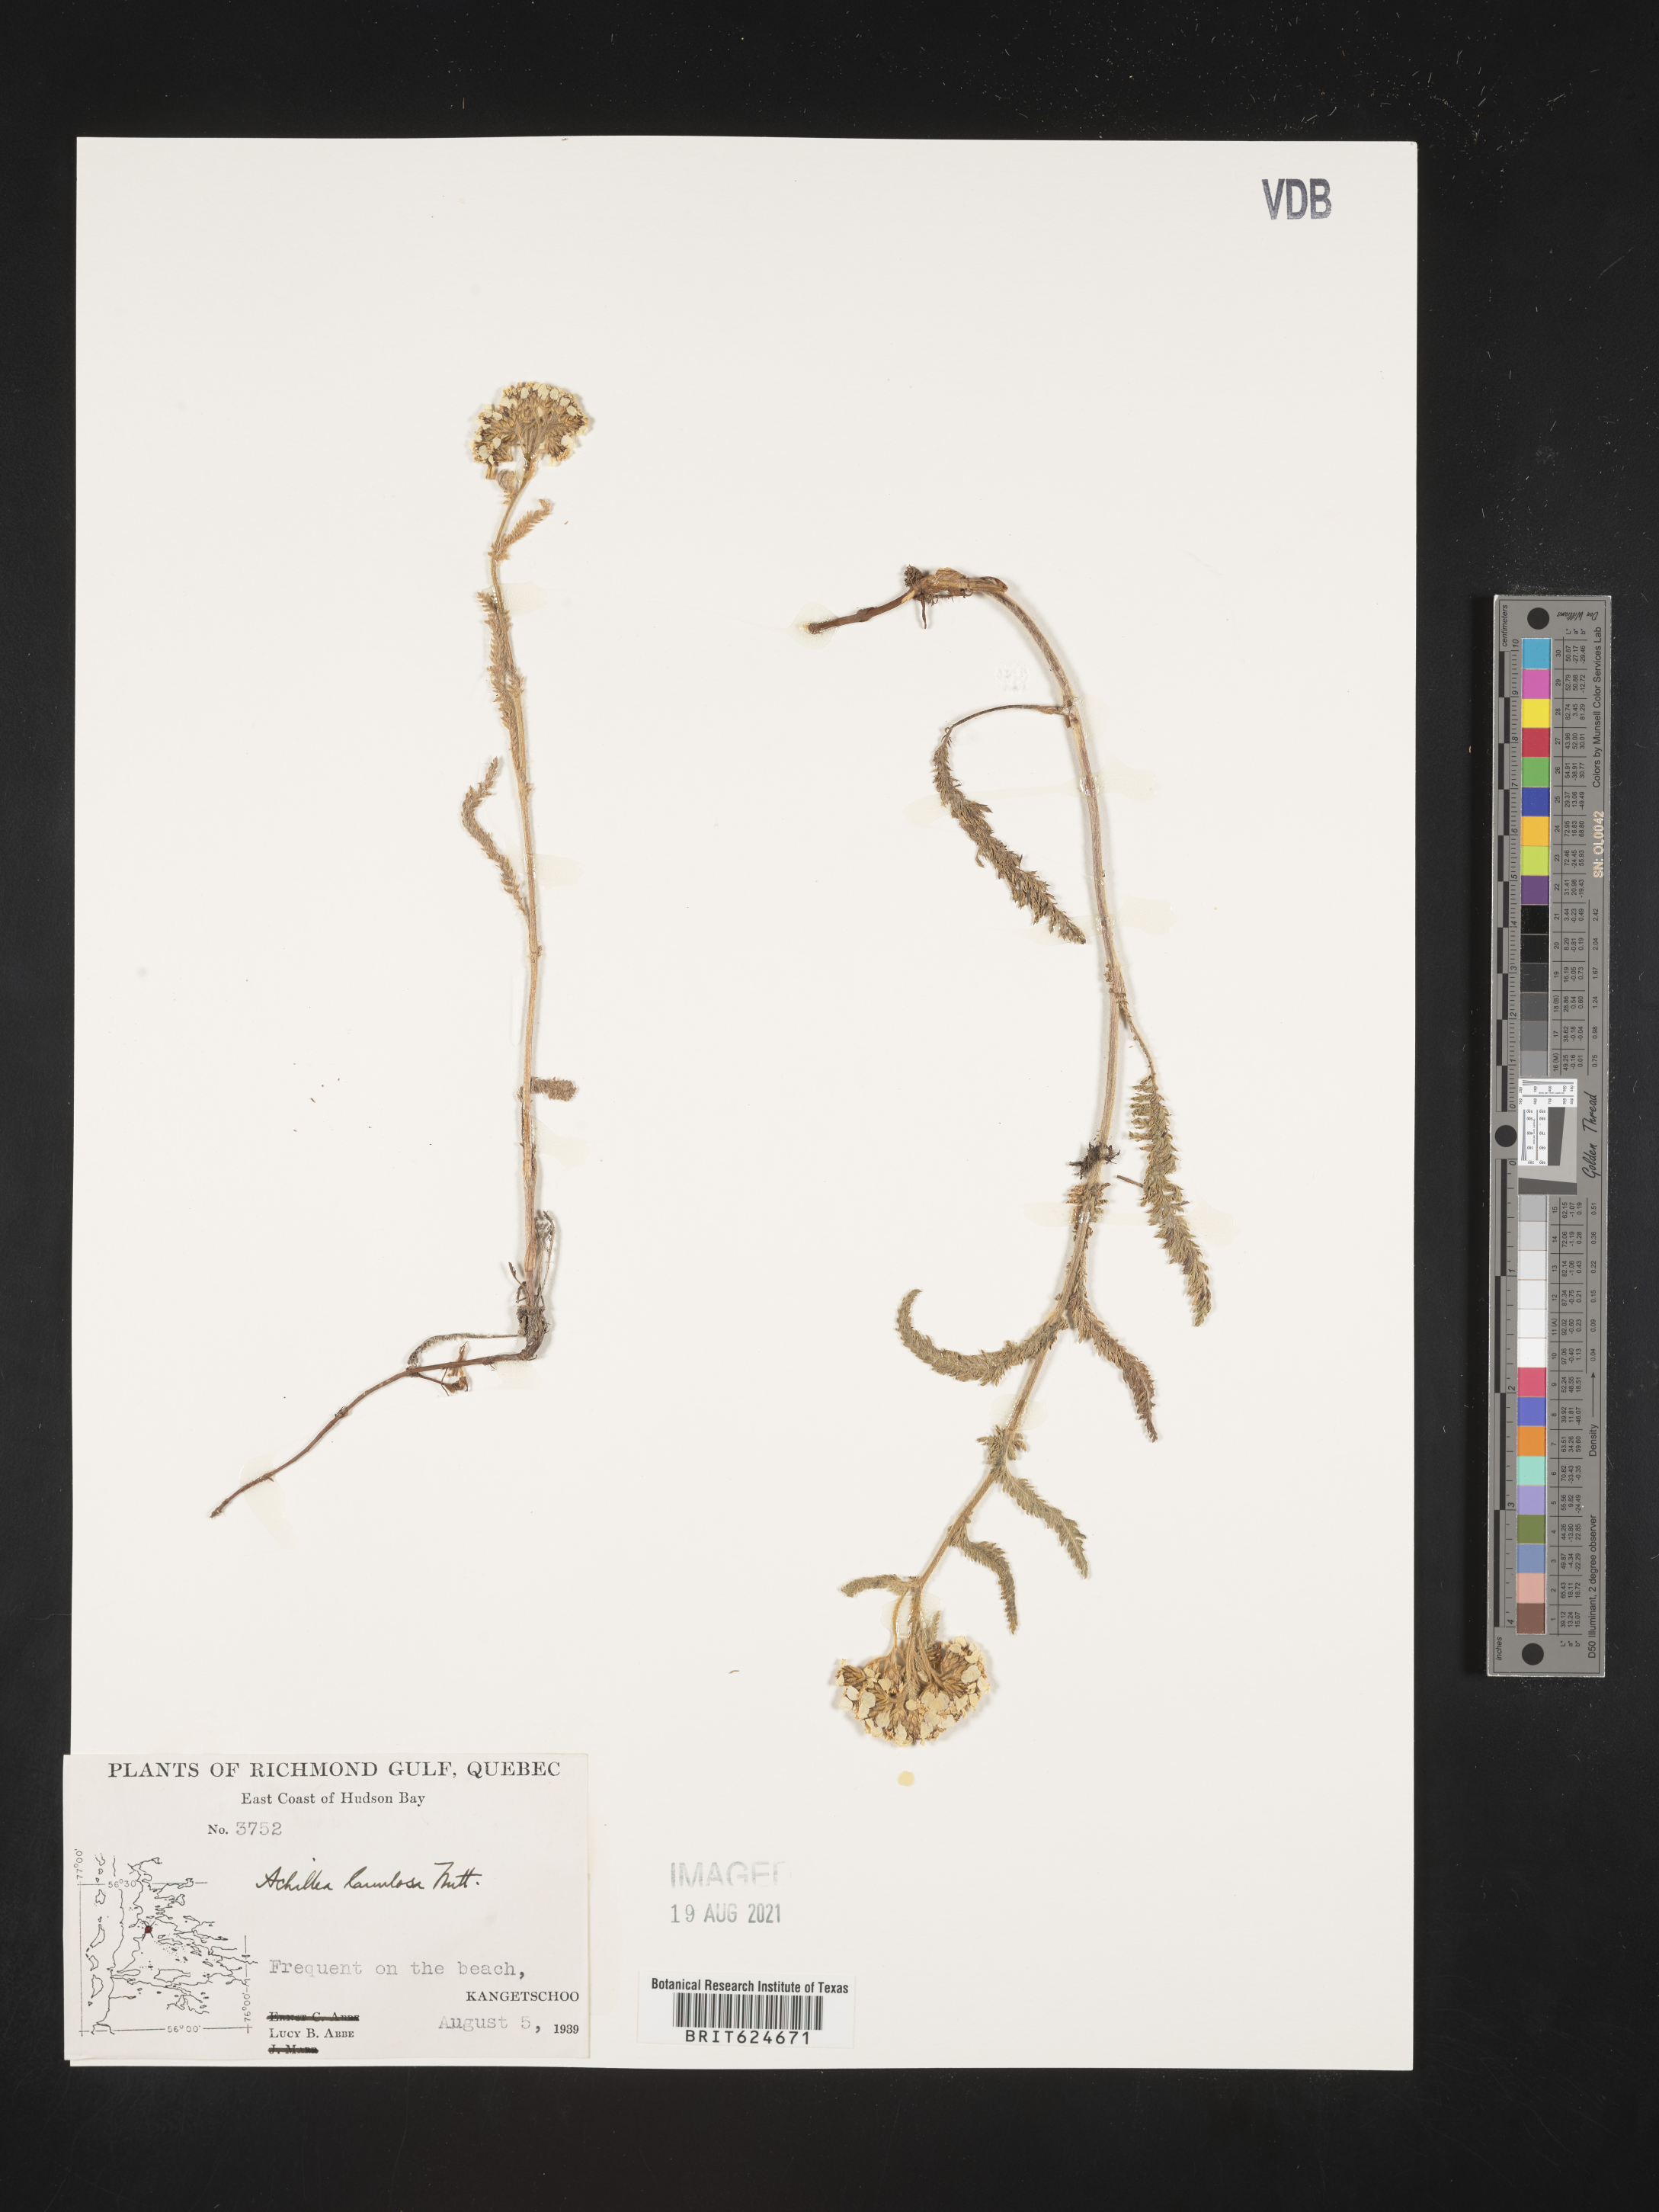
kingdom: Plantae
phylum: Tracheophyta
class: Magnoliopsida
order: Asterales
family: Asteraceae
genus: Achillea
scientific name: Achillea millefolium
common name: Yarrow
